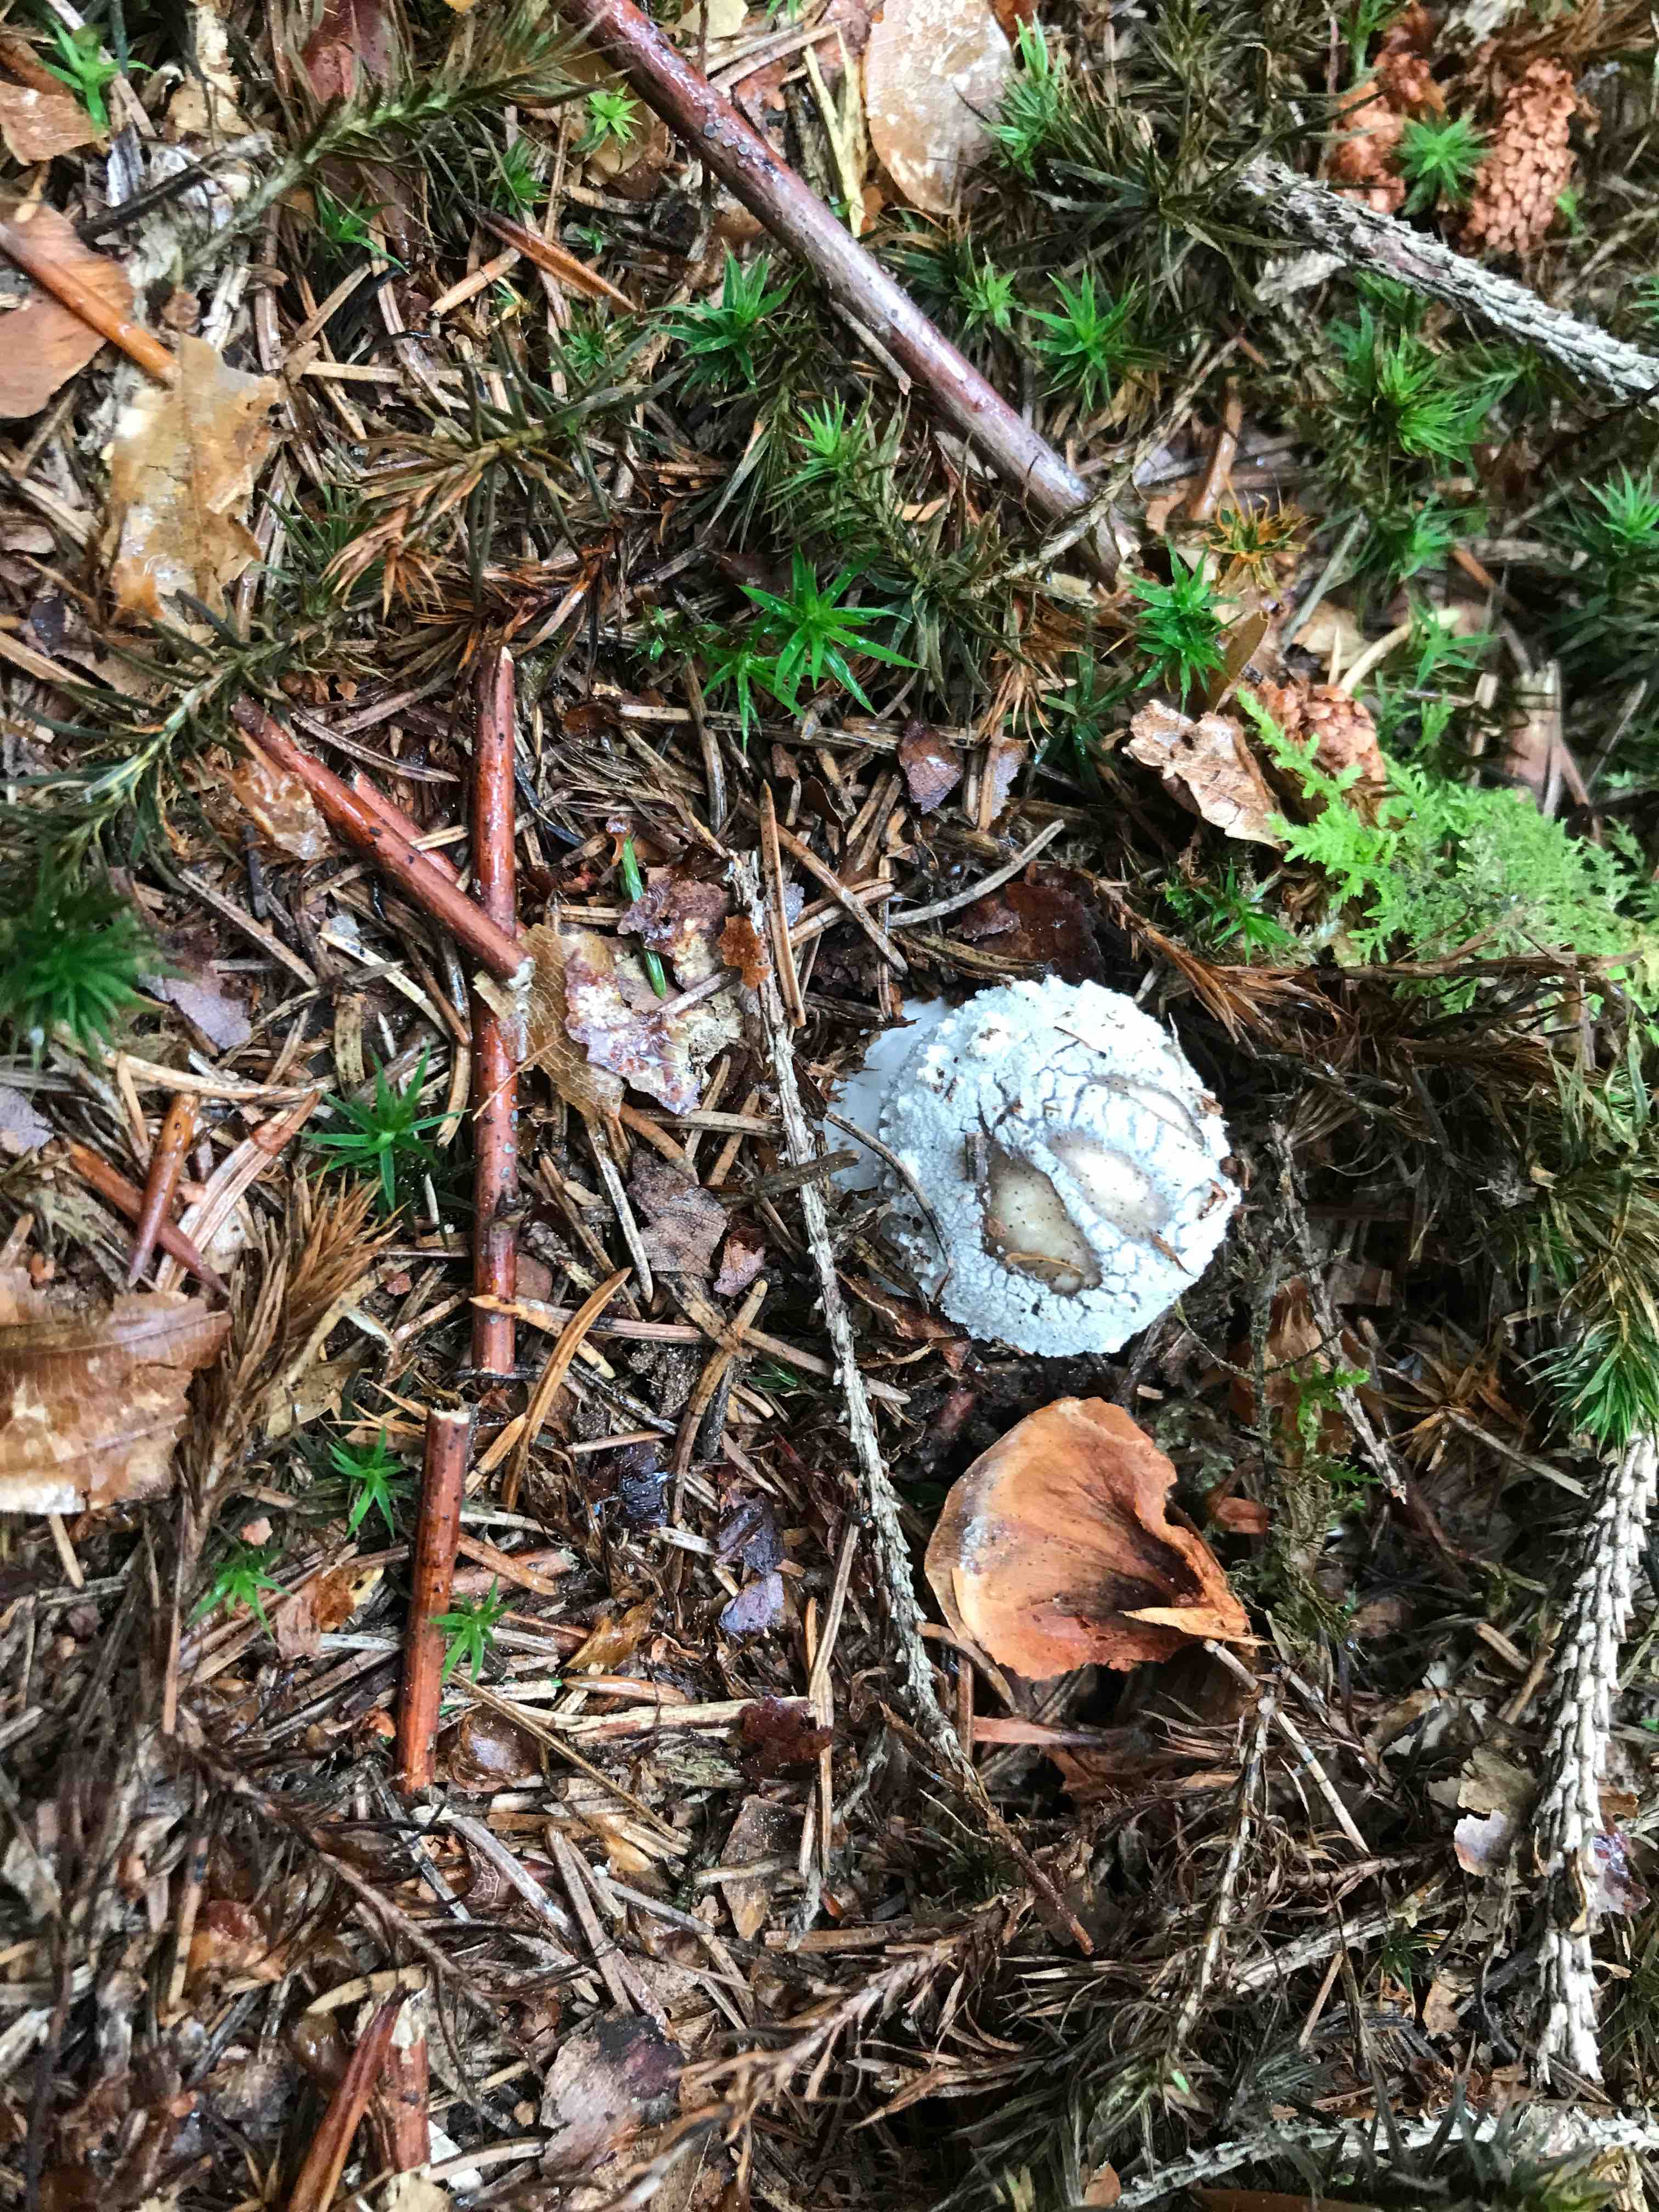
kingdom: Fungi
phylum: Basidiomycota
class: Agaricomycetes
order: Agaricales
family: Amanitaceae
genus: Amanita
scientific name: Amanita
